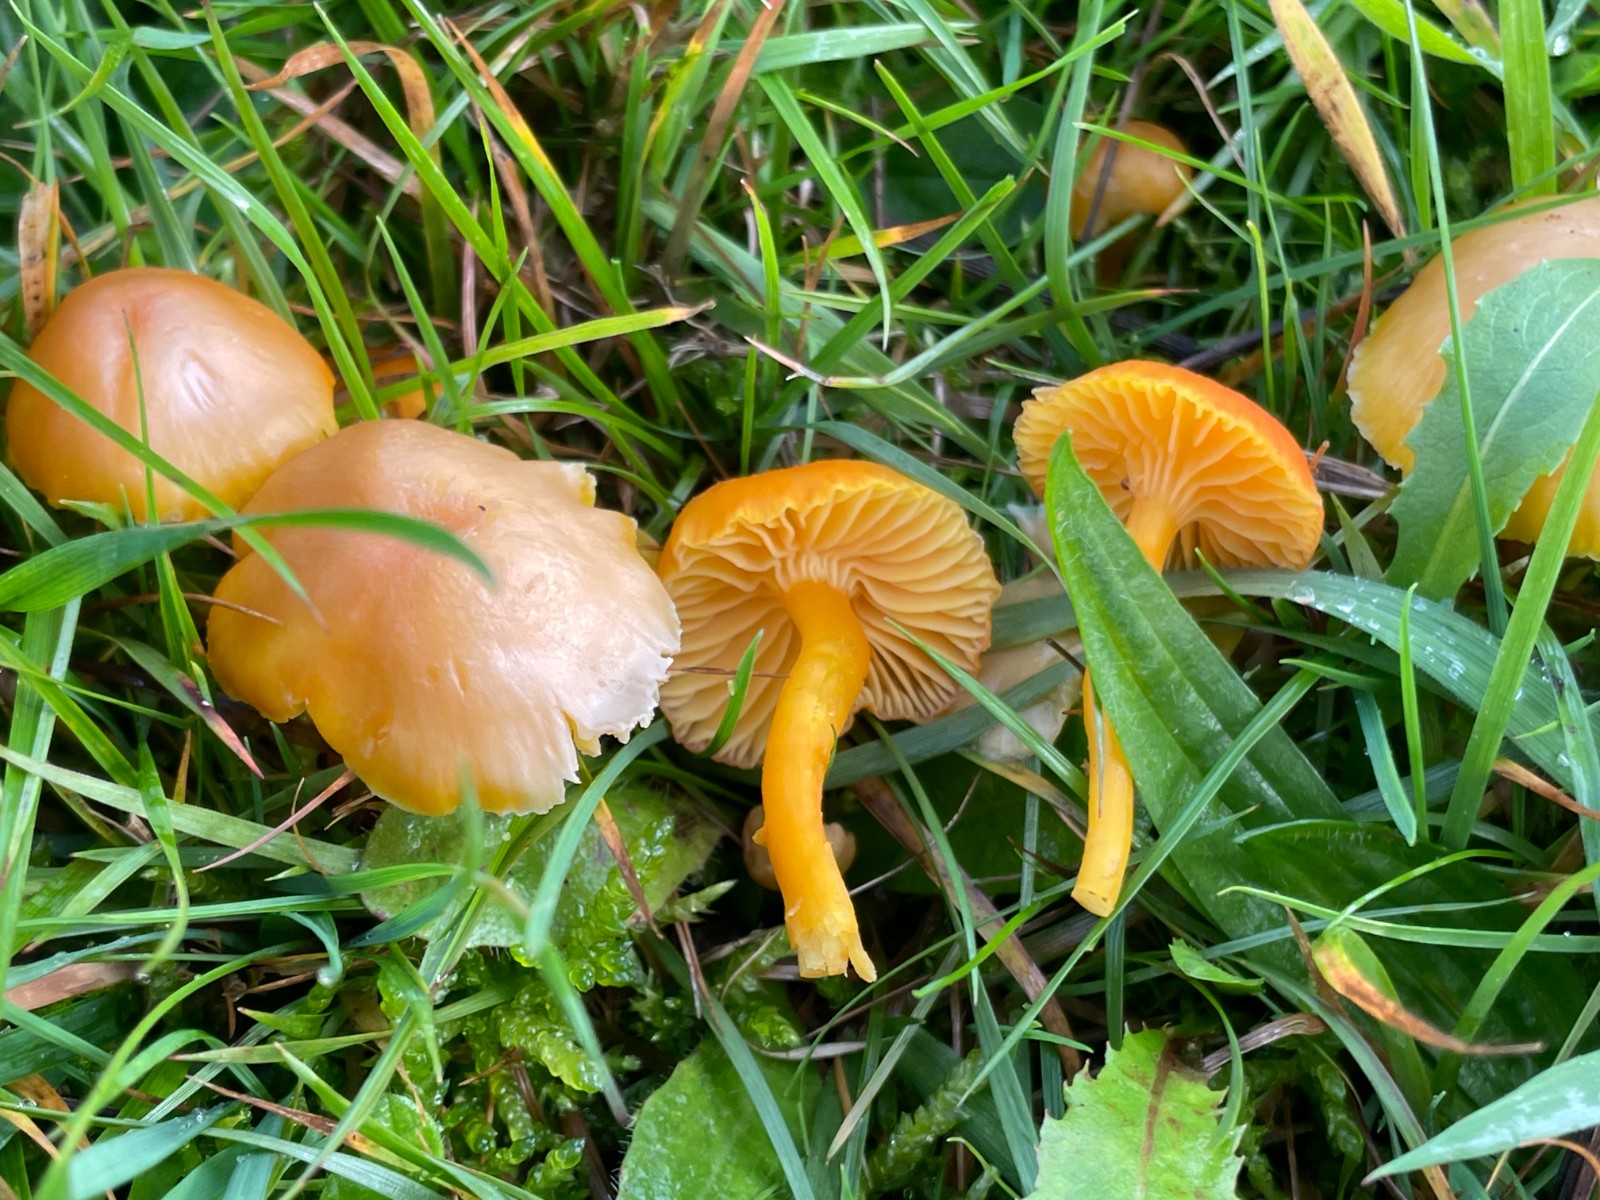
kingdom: Fungi
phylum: Basidiomycota
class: Agaricomycetes
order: Agaricales
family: Hygrophoraceae
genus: Hygrocybe
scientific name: Hygrocybe ceracea
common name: voksgul vokshat
